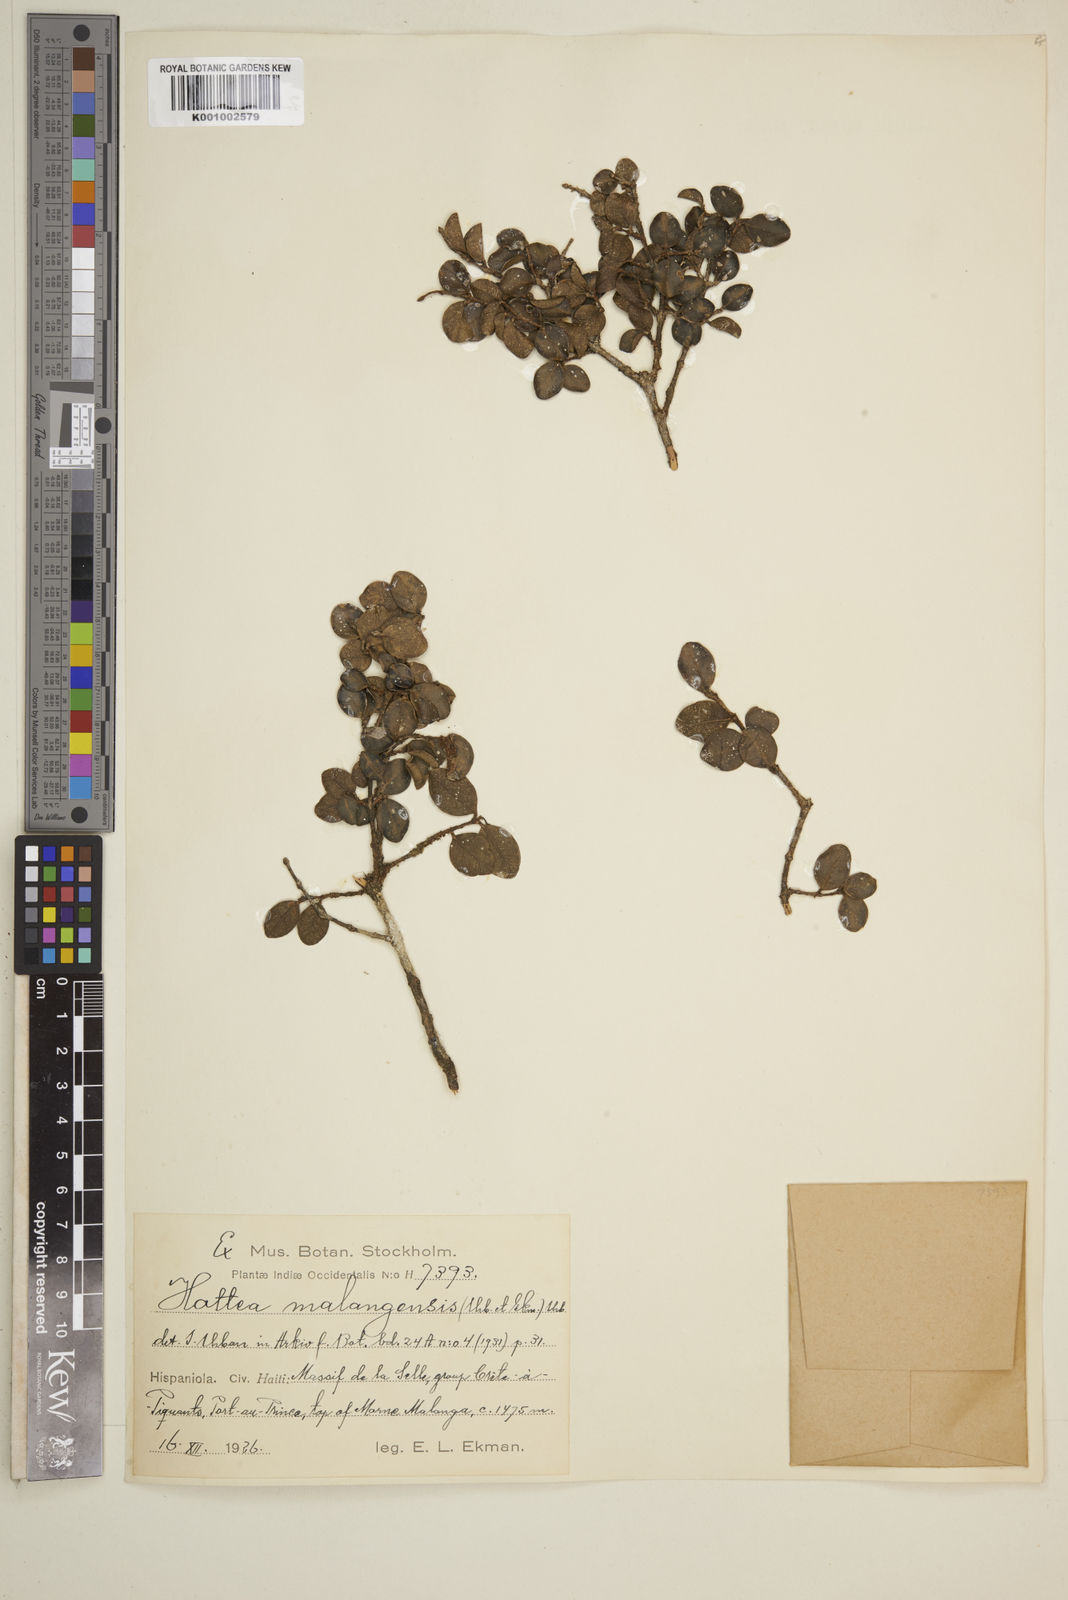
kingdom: Plantae
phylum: Tracheophyta
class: Magnoliopsida
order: Myrtales
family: Myrtaceae
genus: Eugenia
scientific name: Eugenia malangensis
